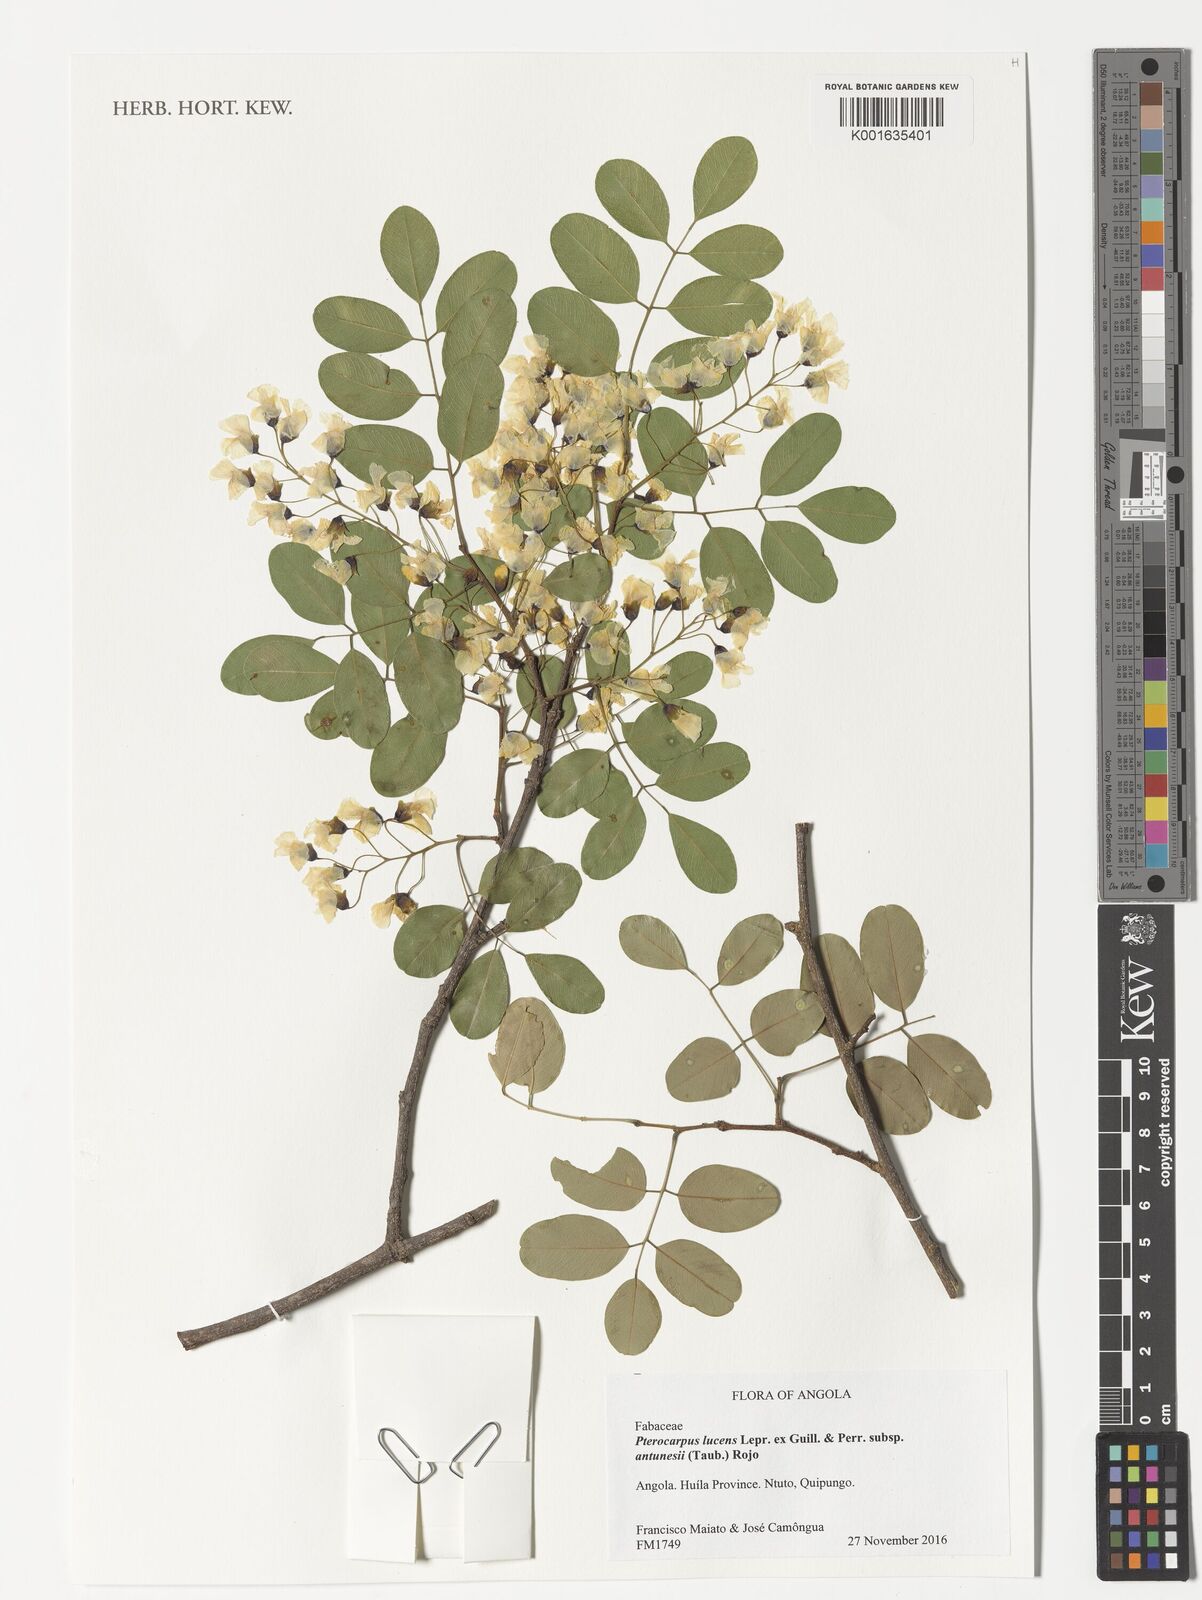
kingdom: Plantae
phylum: Tracheophyta
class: Magnoliopsida
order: Fabales
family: Fabaceae
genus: Pterocarpus
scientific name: Pterocarpus lucens
